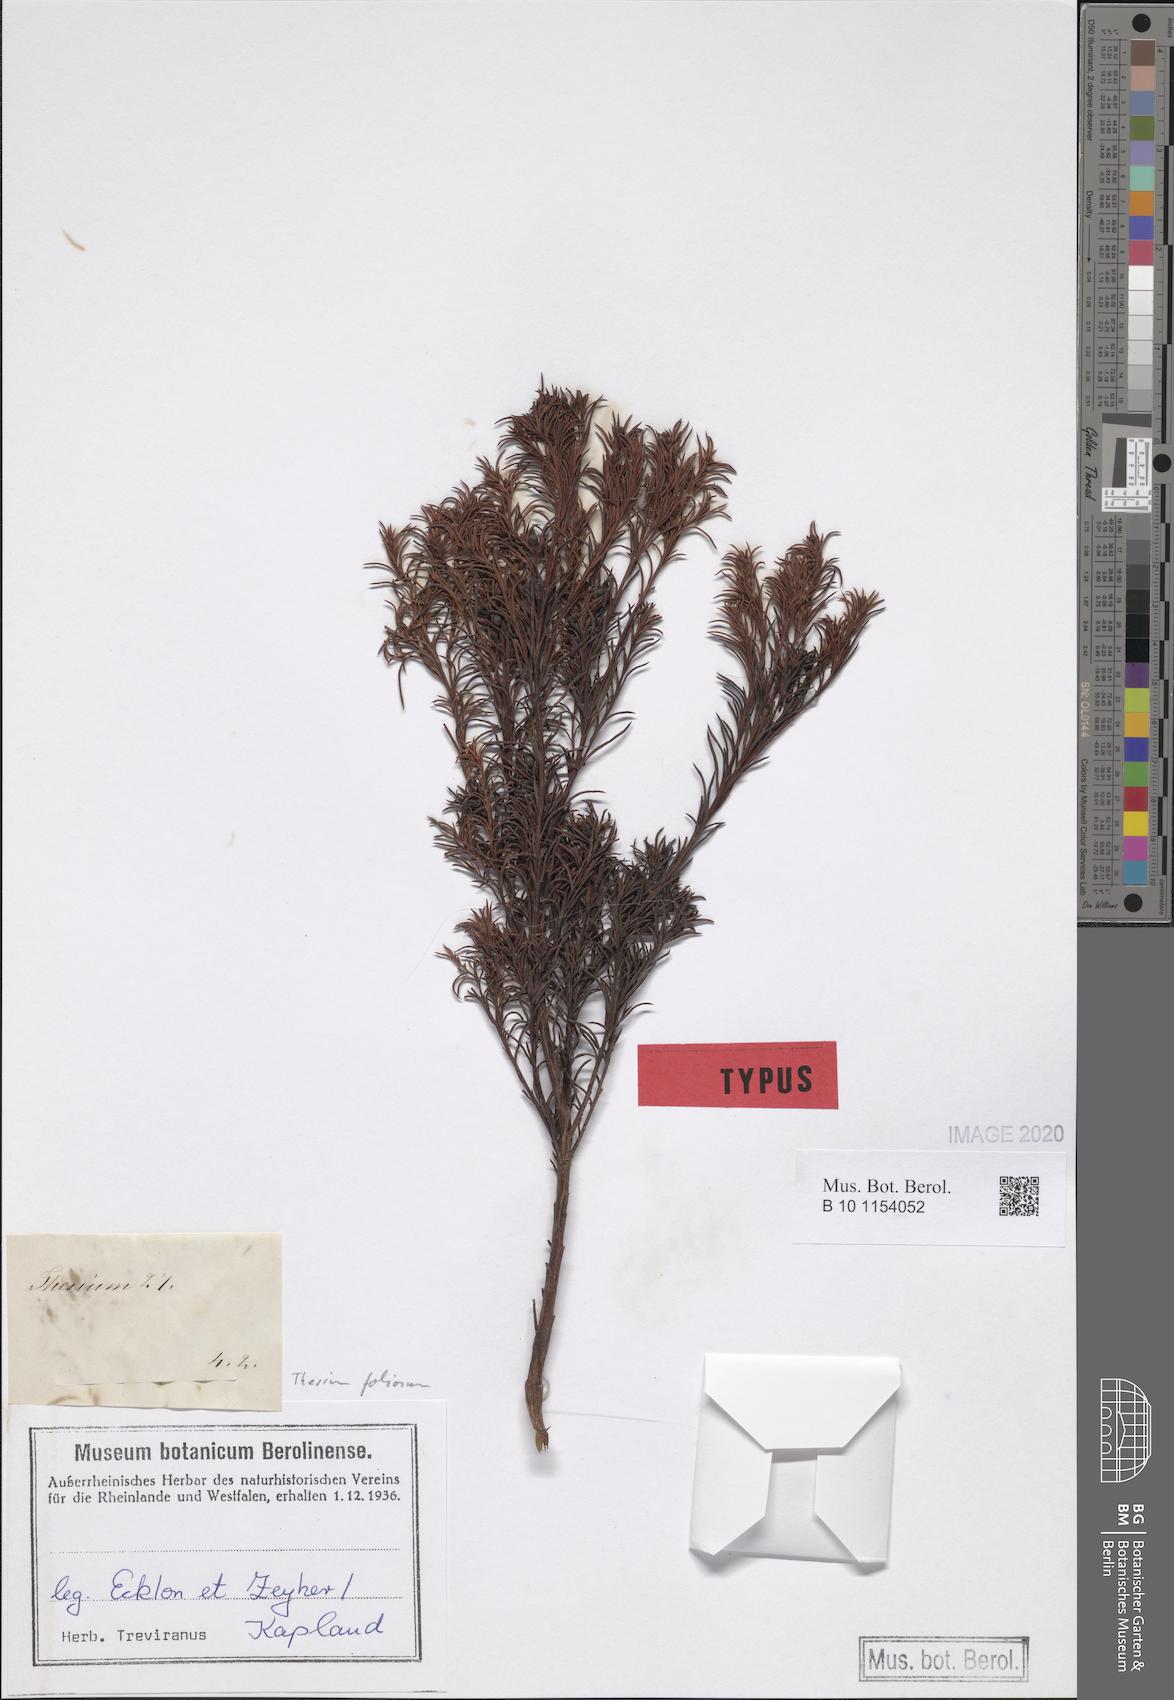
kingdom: Plantae
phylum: Tracheophyta
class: Magnoliopsida
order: Santalales
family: Thesiaceae
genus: Thesium
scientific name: Thesium foliosum
